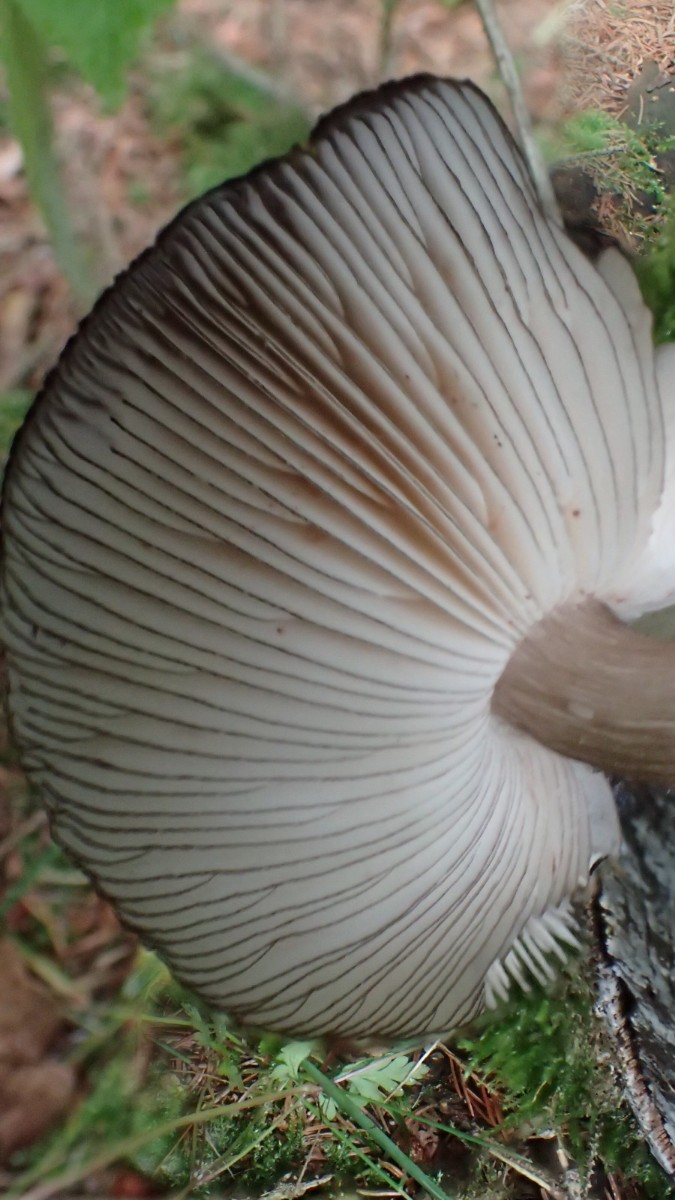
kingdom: Fungi
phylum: Basidiomycota
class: Agaricomycetes
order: Agaricales
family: Pluteaceae
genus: Pluteus
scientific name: Pluteus atromarginatus
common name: sortrandet skærmhat
